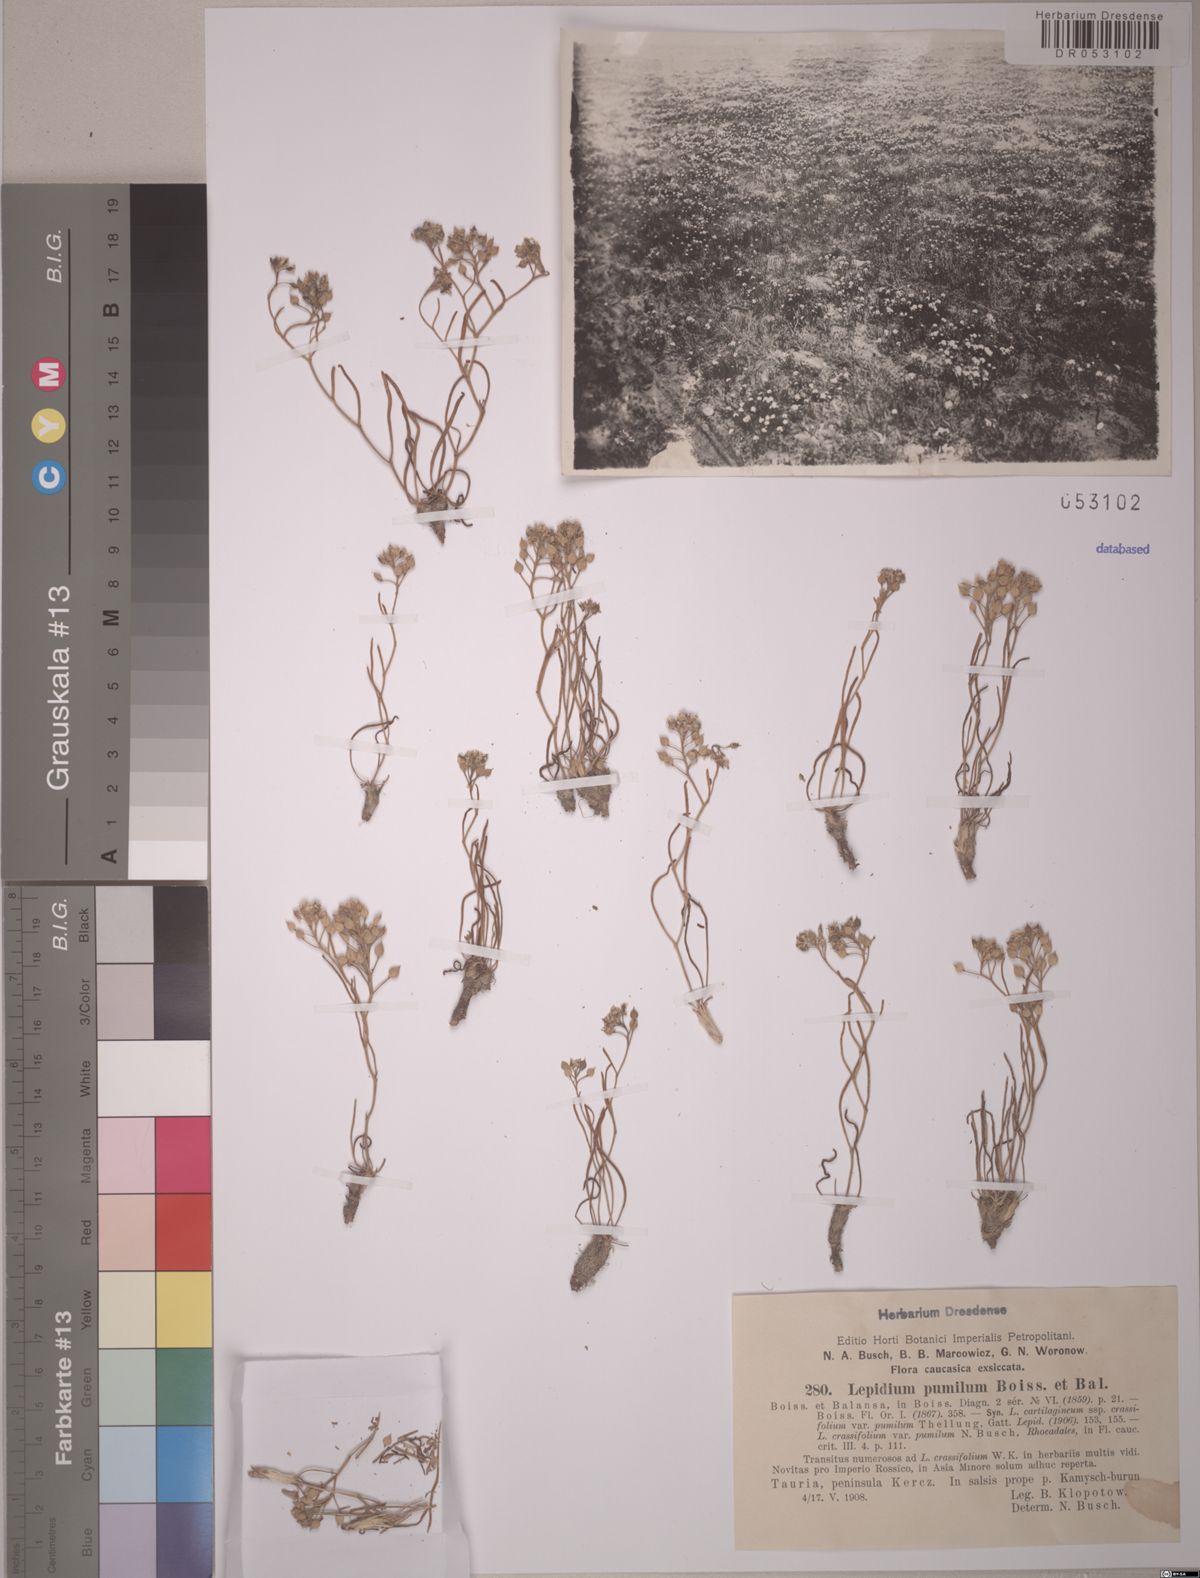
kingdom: Plantae
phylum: Tracheophyta
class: Magnoliopsida
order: Brassicales
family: Brassicaceae
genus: Lepidium
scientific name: Lepidium cartilagineum
